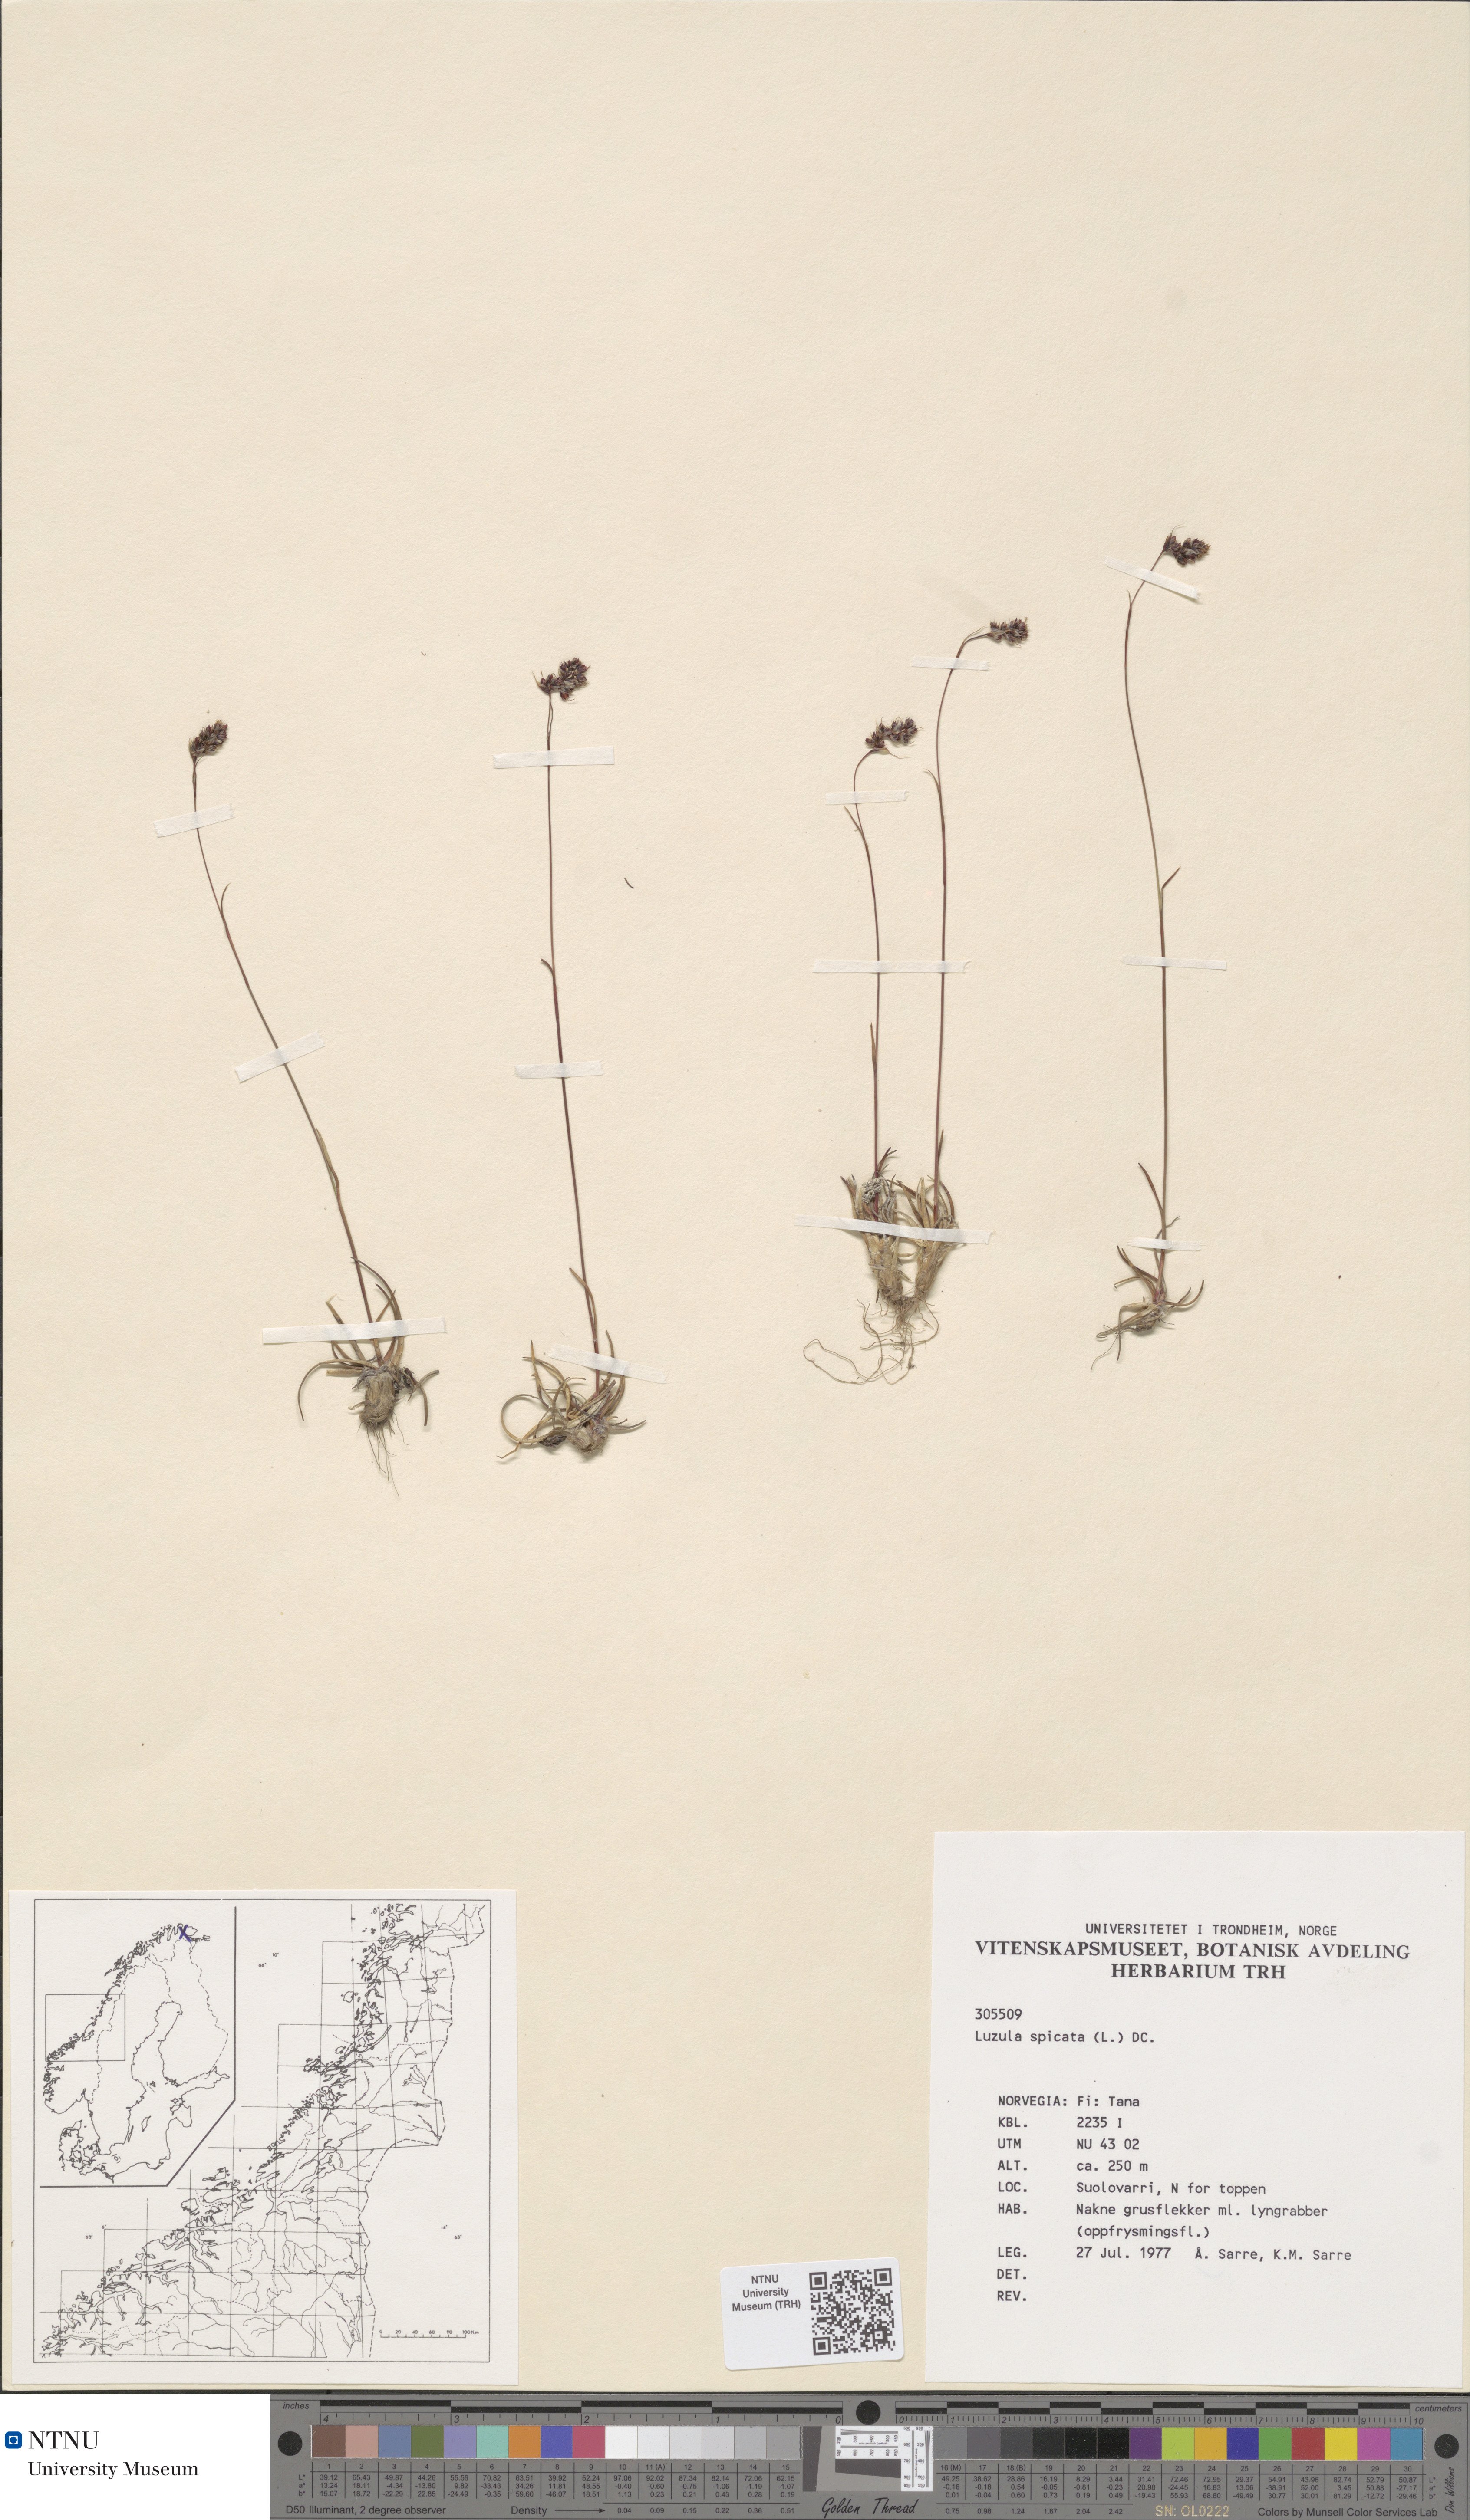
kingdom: Plantae
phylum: Tracheophyta
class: Liliopsida
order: Poales
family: Juncaceae
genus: Luzula
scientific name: Luzula spicata
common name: Spiked wood-rush
